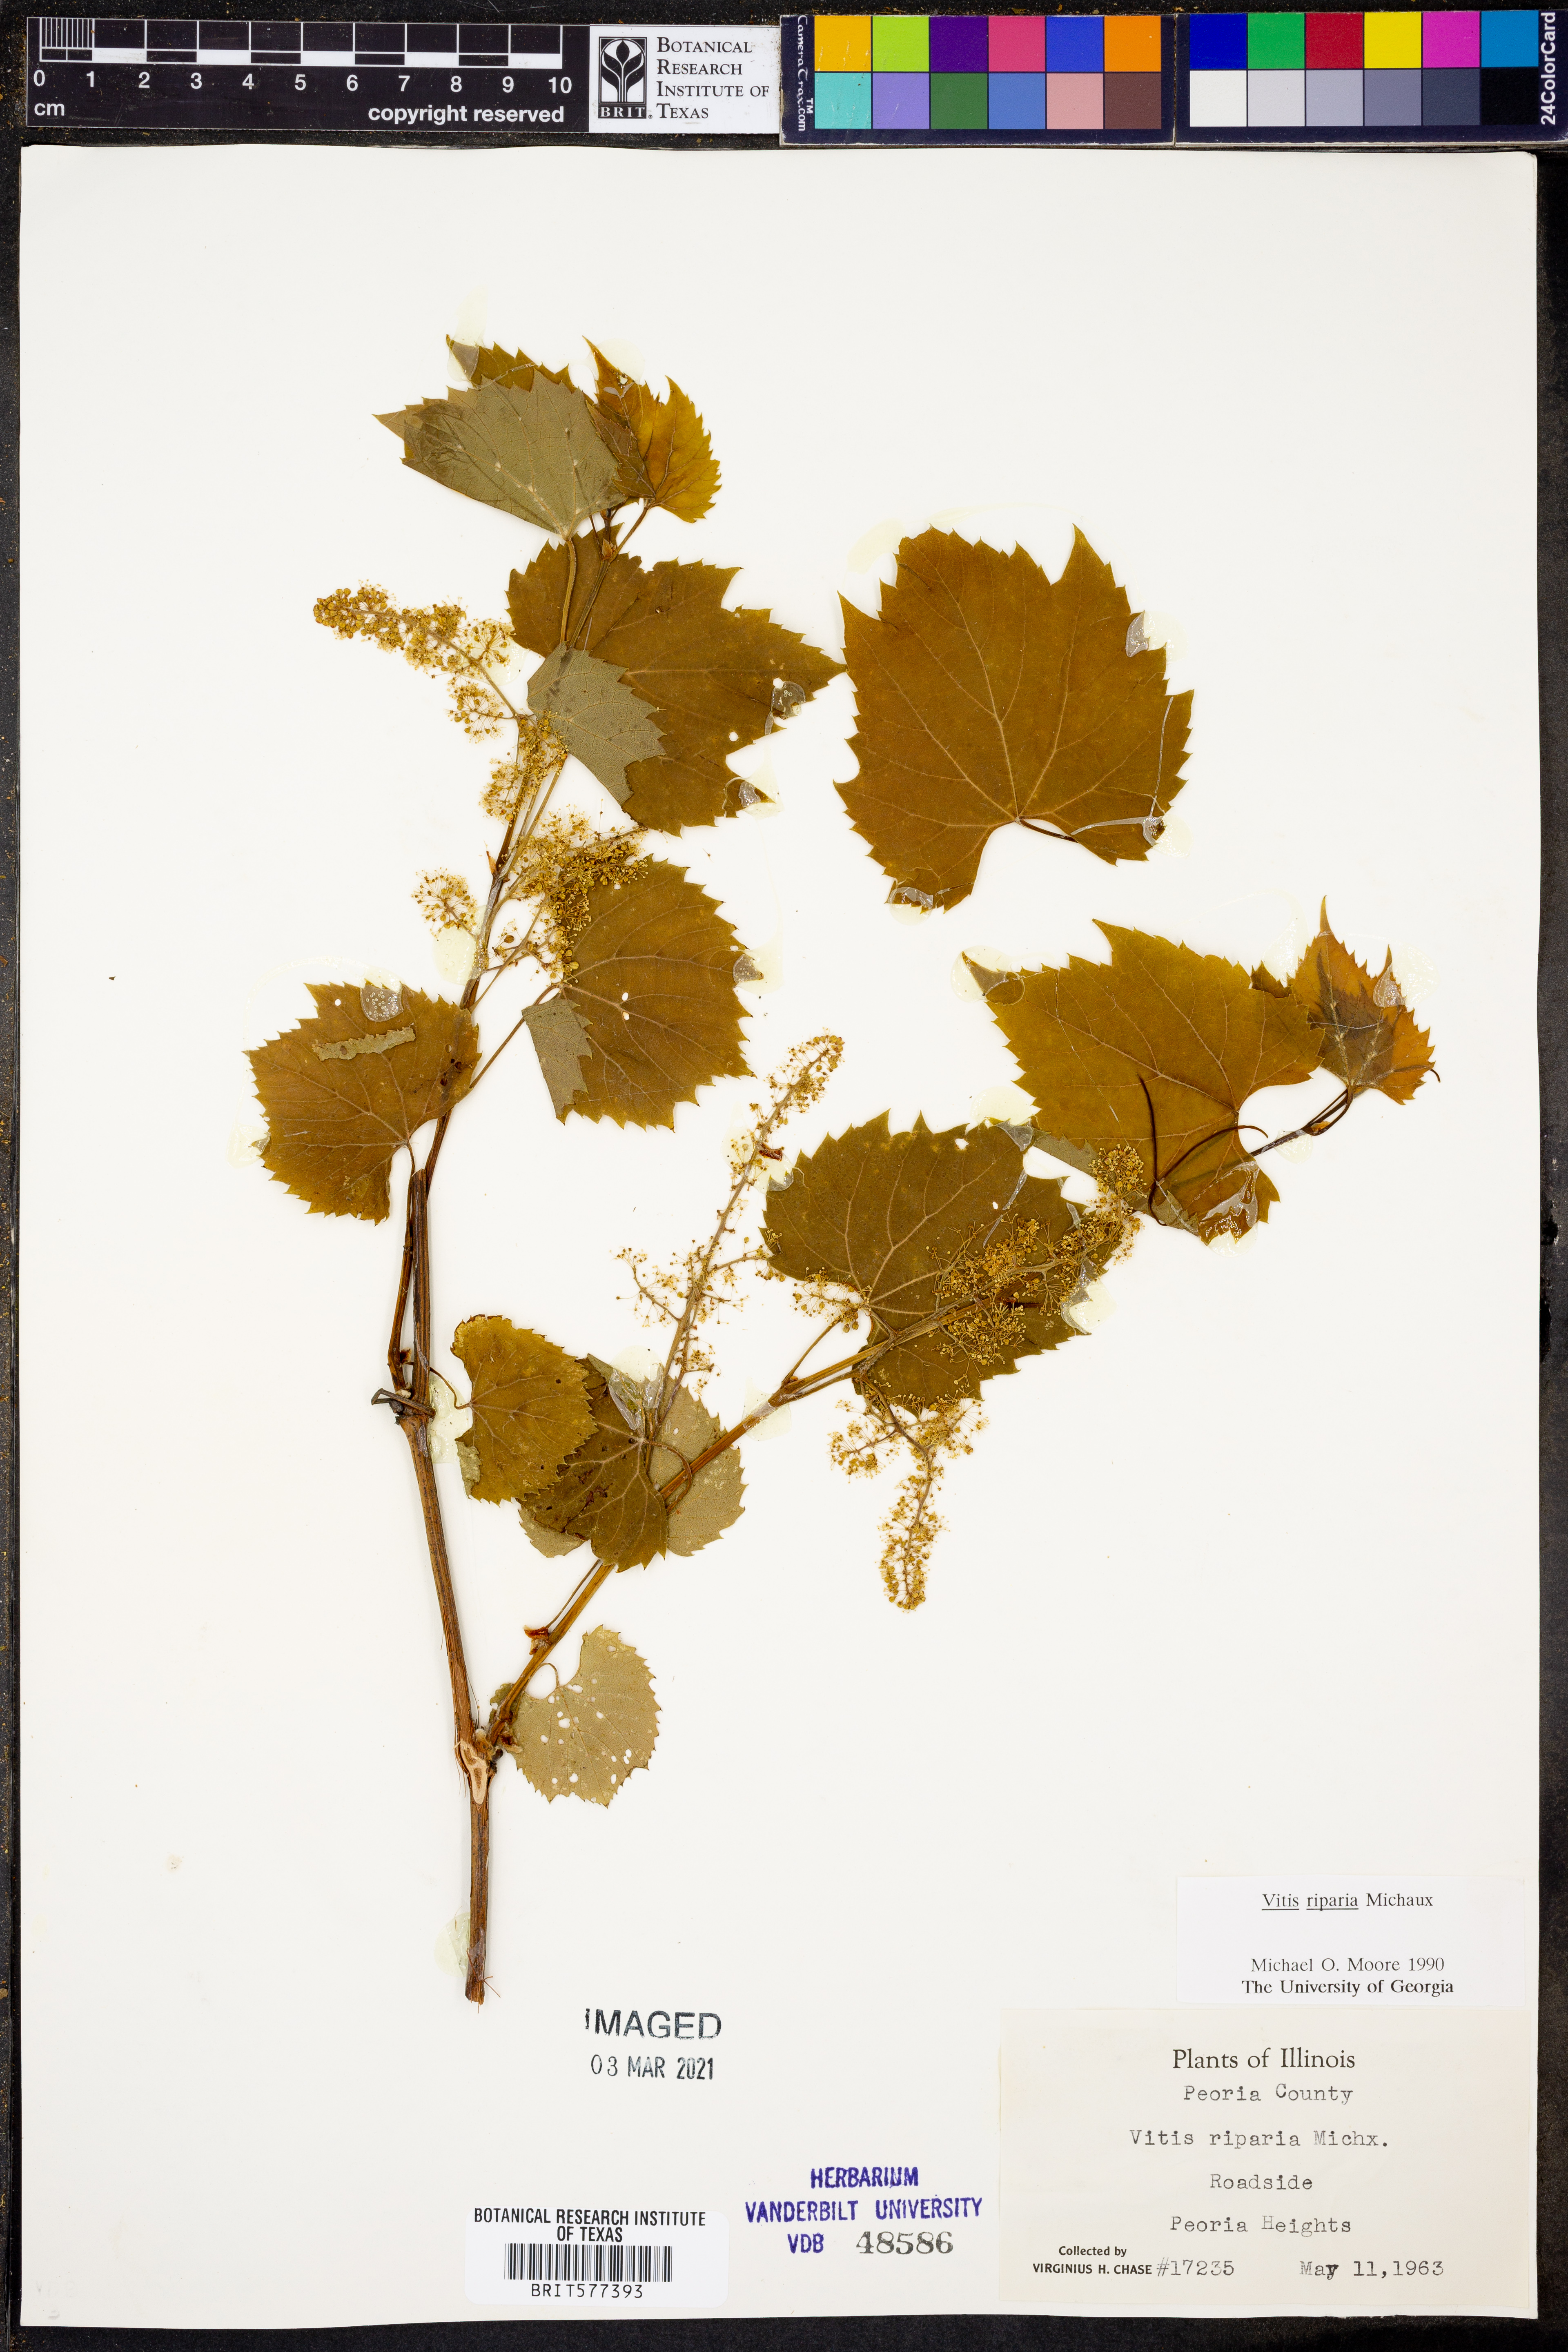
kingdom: Plantae
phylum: Tracheophyta
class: Magnoliopsida
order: Vitales
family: Vitaceae
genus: Vitis
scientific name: Vitis riparia
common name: Frost grape
